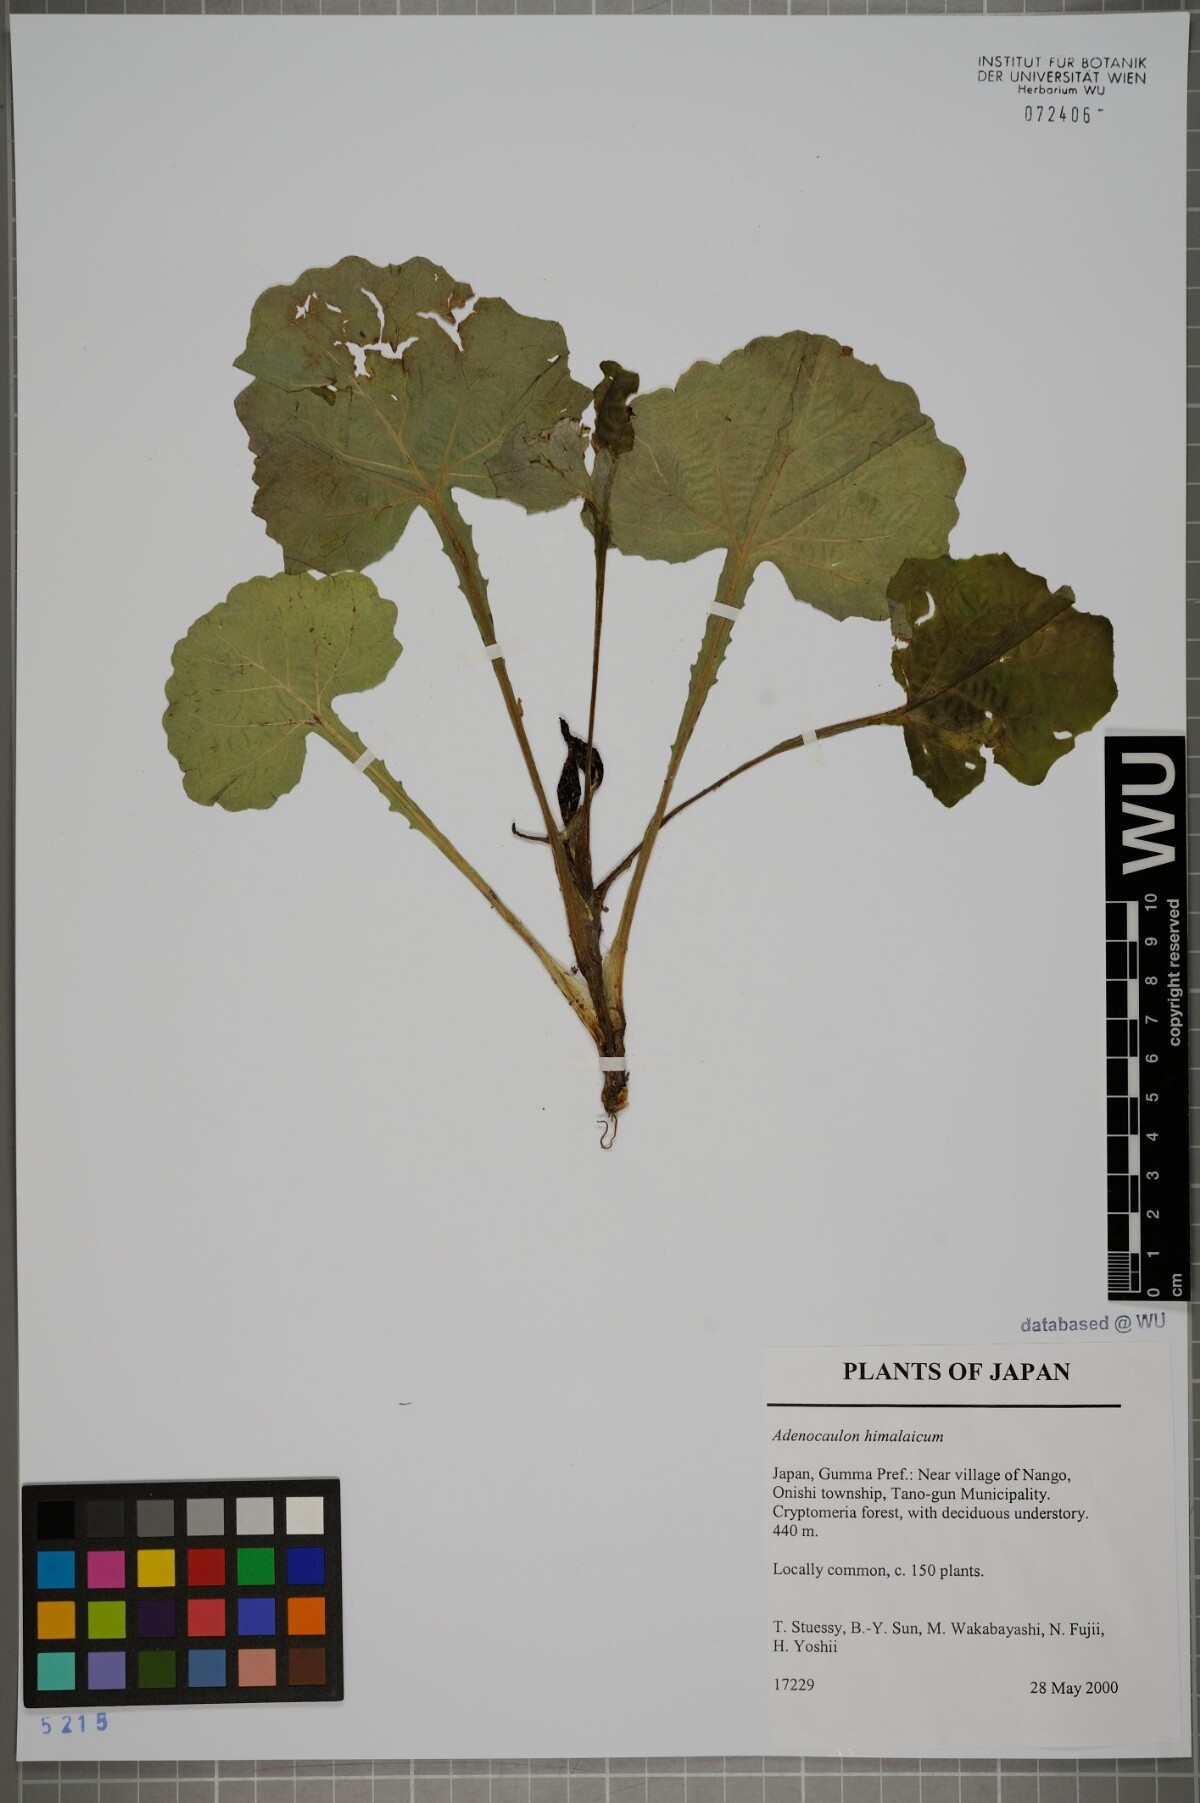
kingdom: Plantae
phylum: Tracheophyta
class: Magnoliopsida
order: Asterales
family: Asteraceae
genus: Adenocaulon
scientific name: Adenocaulon himalaicum
